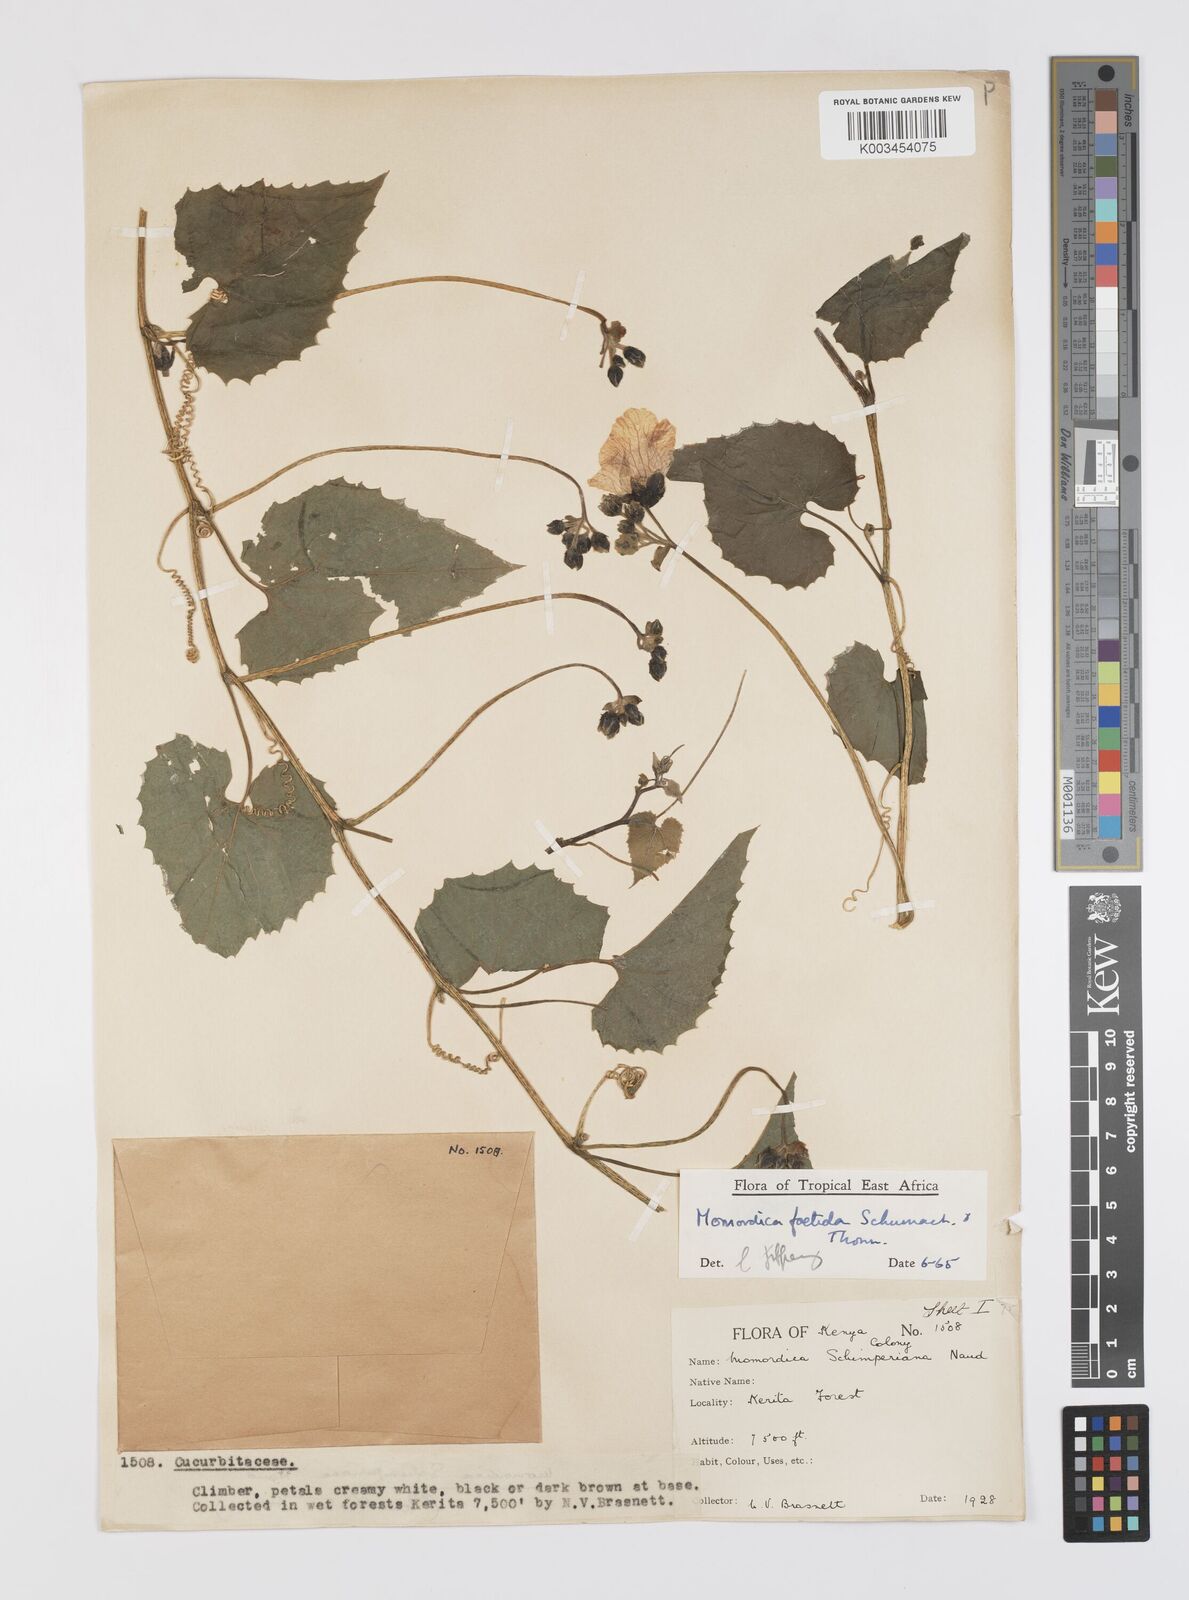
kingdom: Plantae
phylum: Tracheophyta
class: Magnoliopsida
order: Cucurbitales
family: Cucurbitaceae
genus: Momordica
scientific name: Momordica foetida
